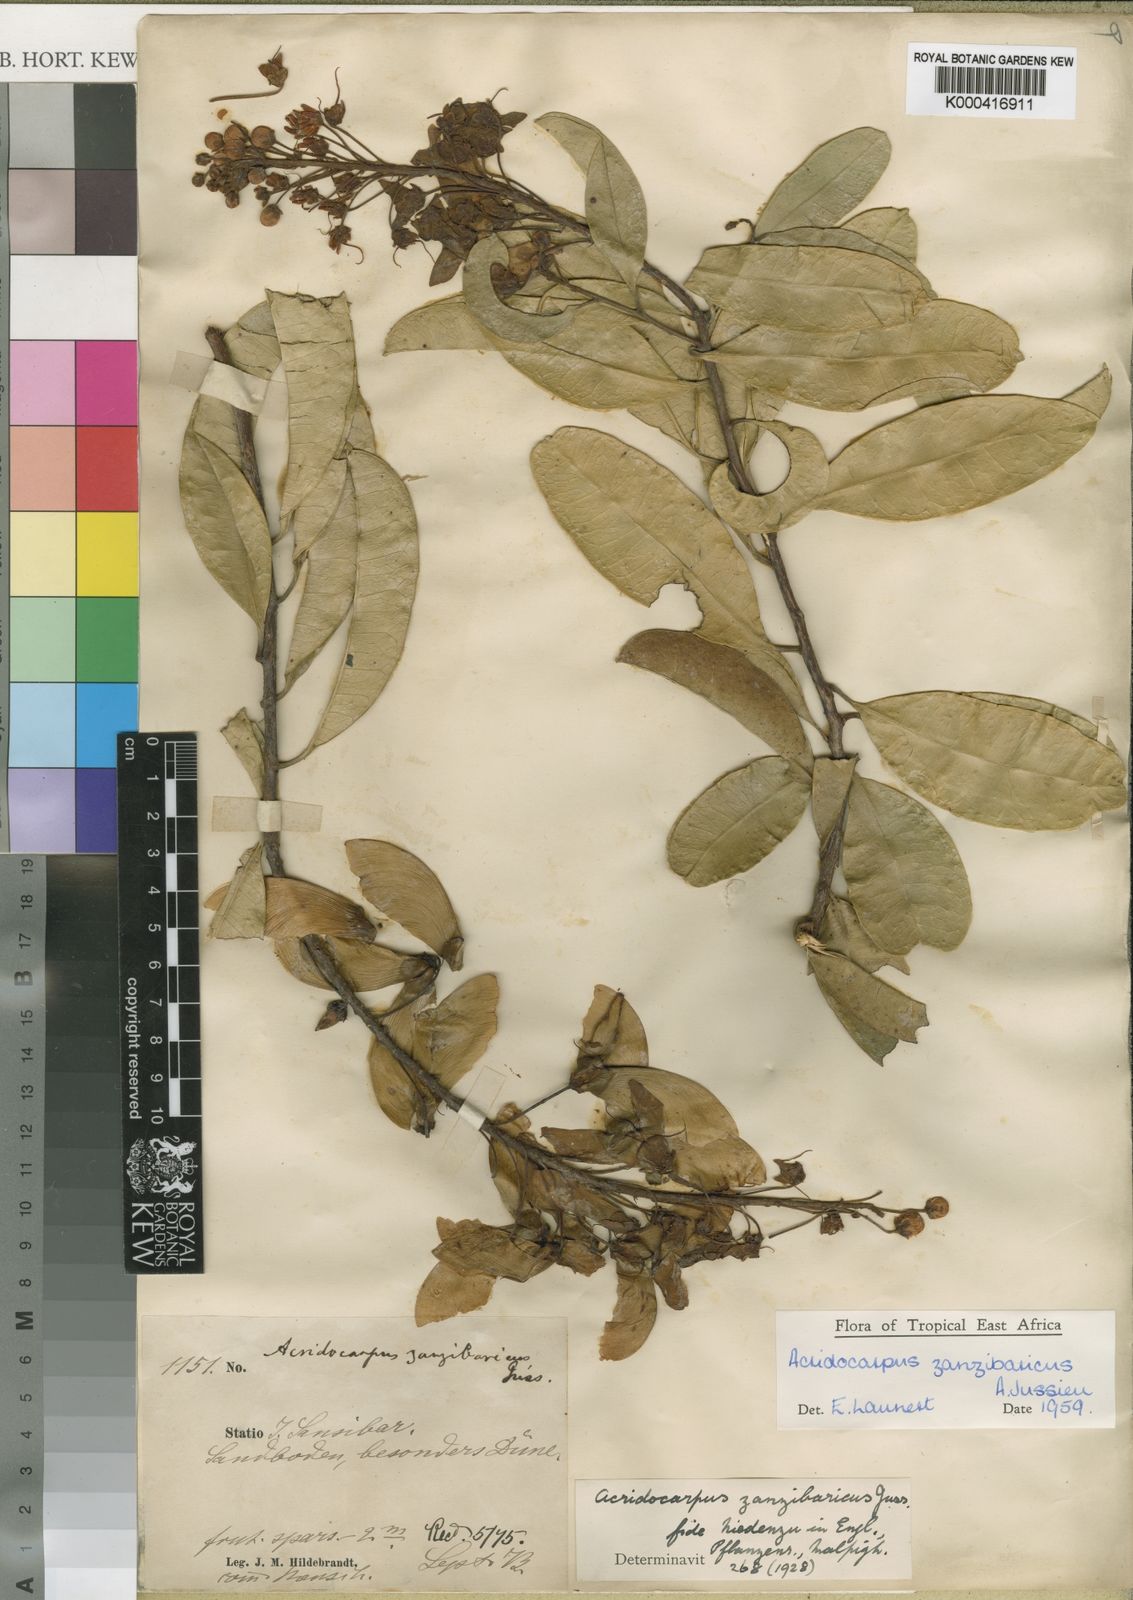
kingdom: Plantae
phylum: Tracheophyta
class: Magnoliopsida
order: Malpighiales
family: Malpighiaceae
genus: Acridocarpus
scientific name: Acridocarpus zanzibaricus
